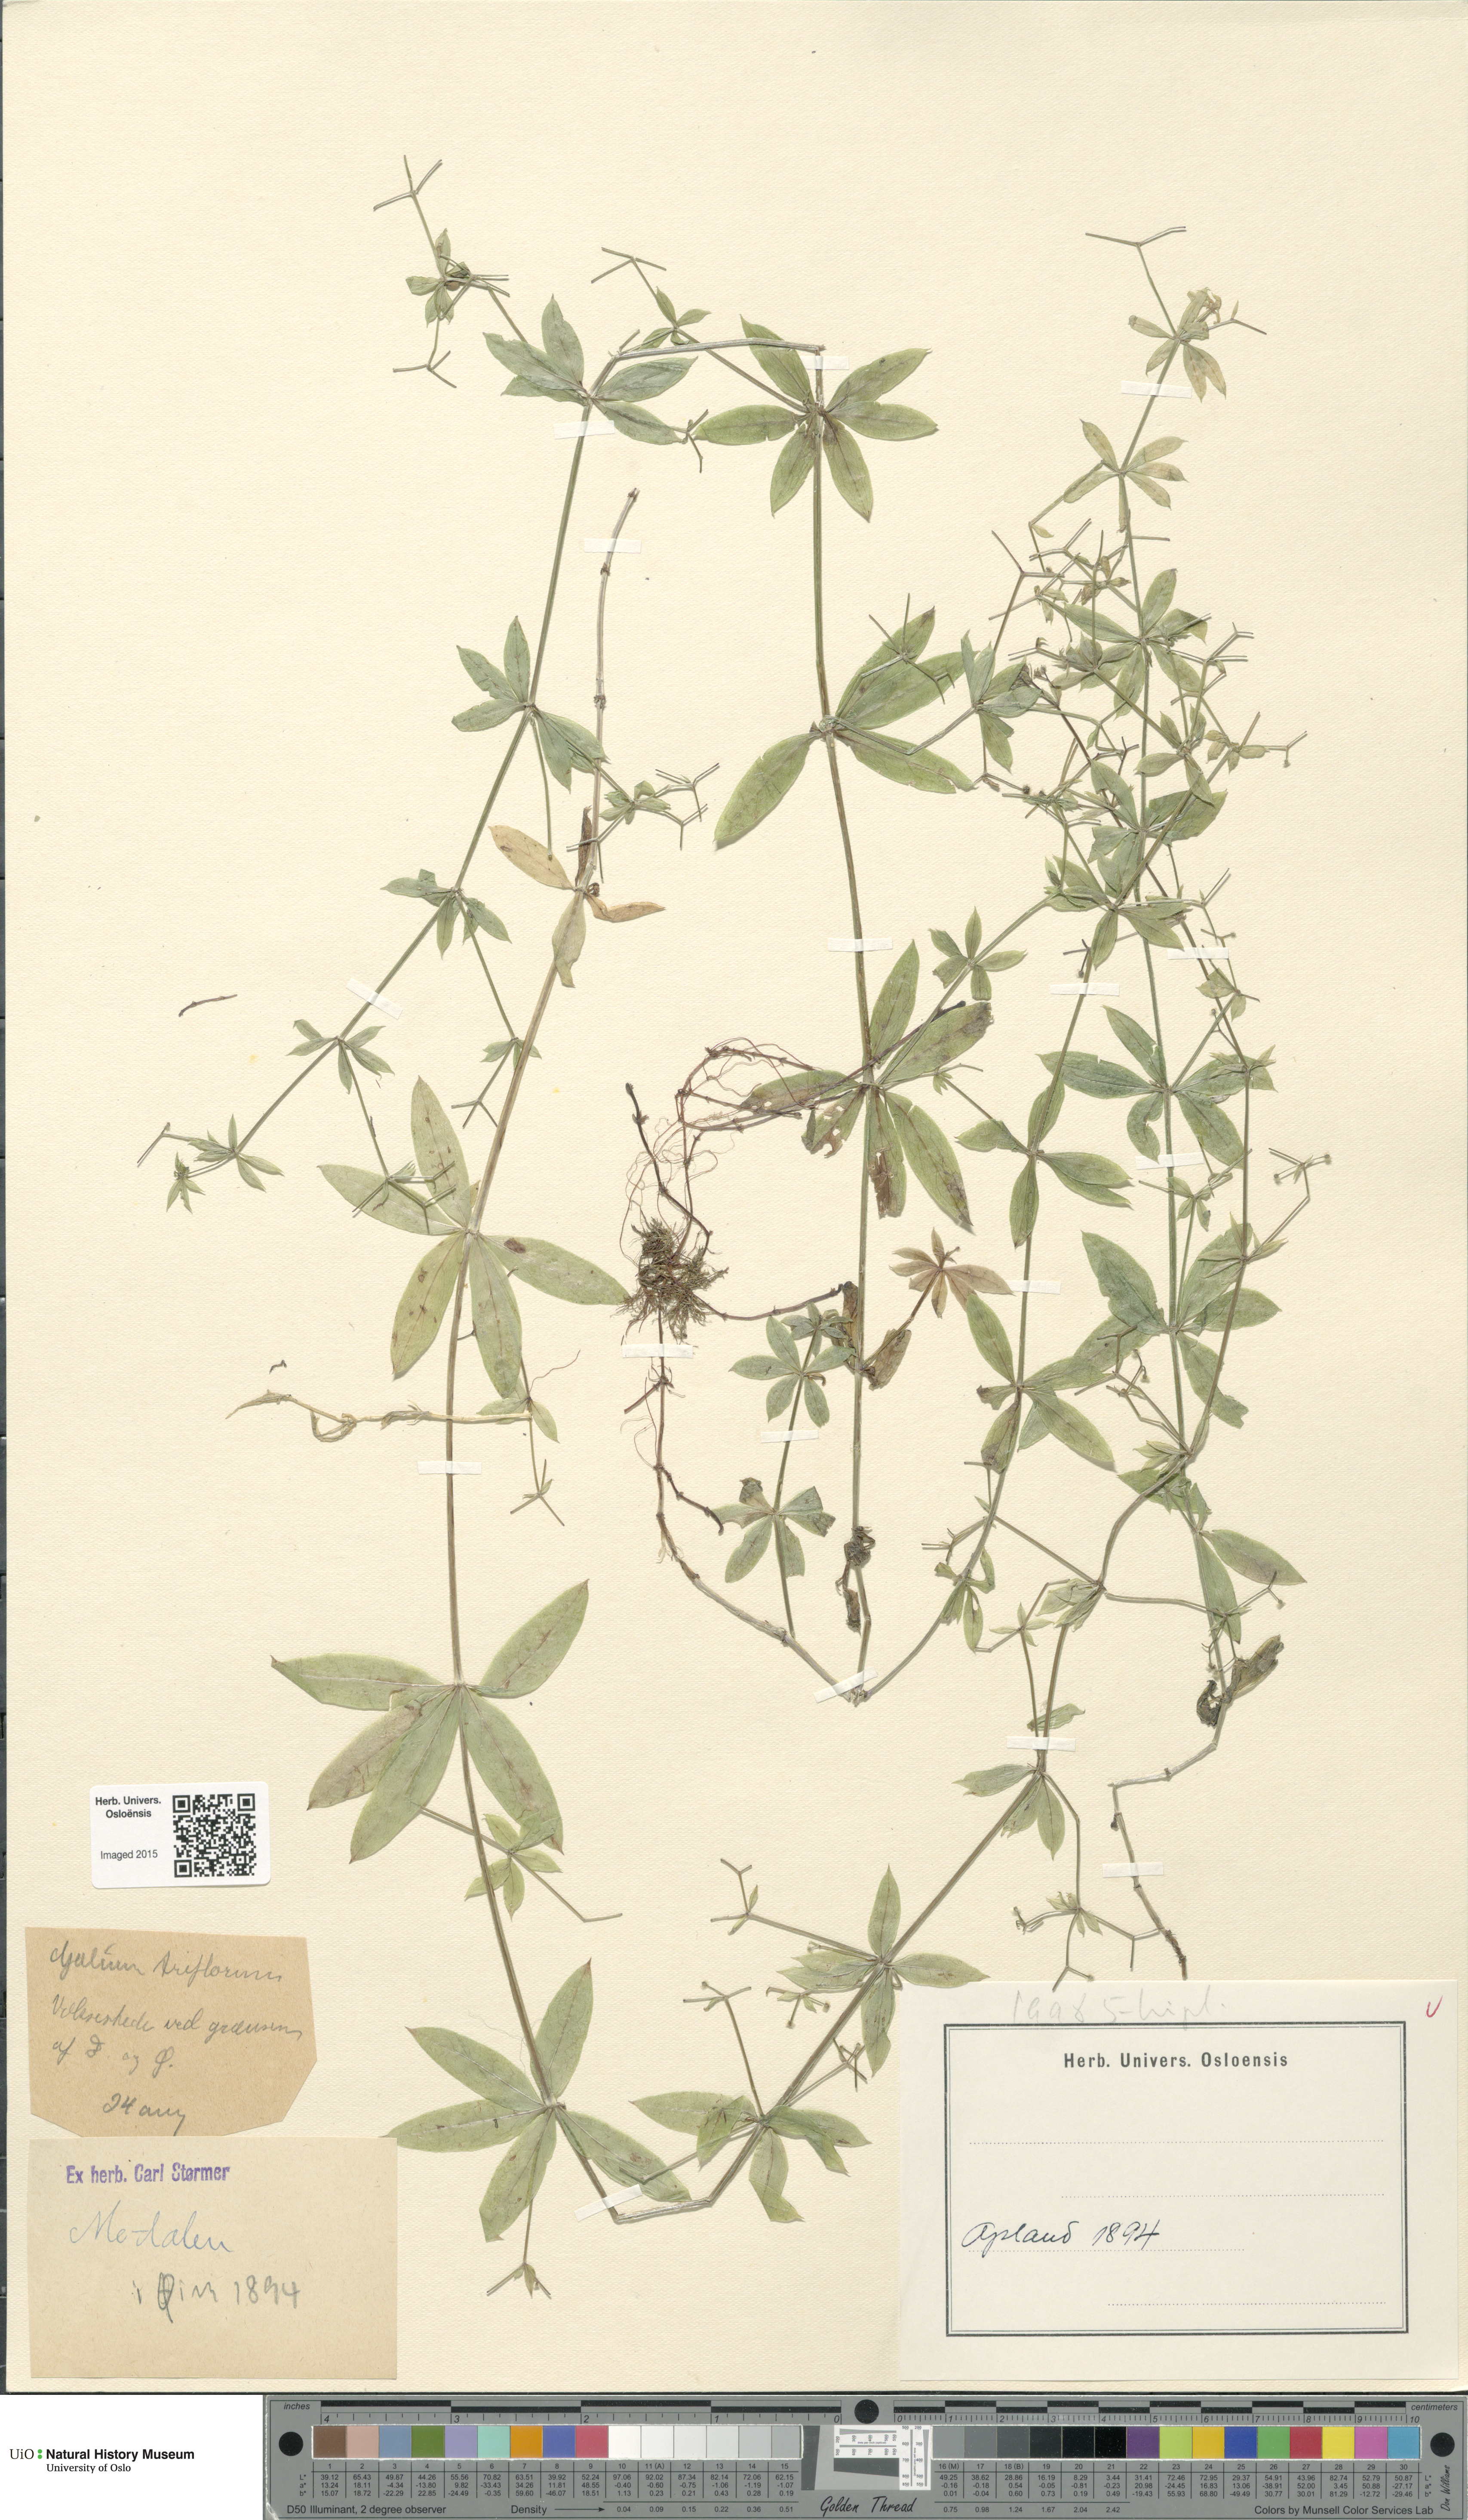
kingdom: Plantae
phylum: Tracheophyta
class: Magnoliopsida
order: Gentianales
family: Rubiaceae
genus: Galium
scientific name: Galium triflorum
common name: Fragrant bedstraw
